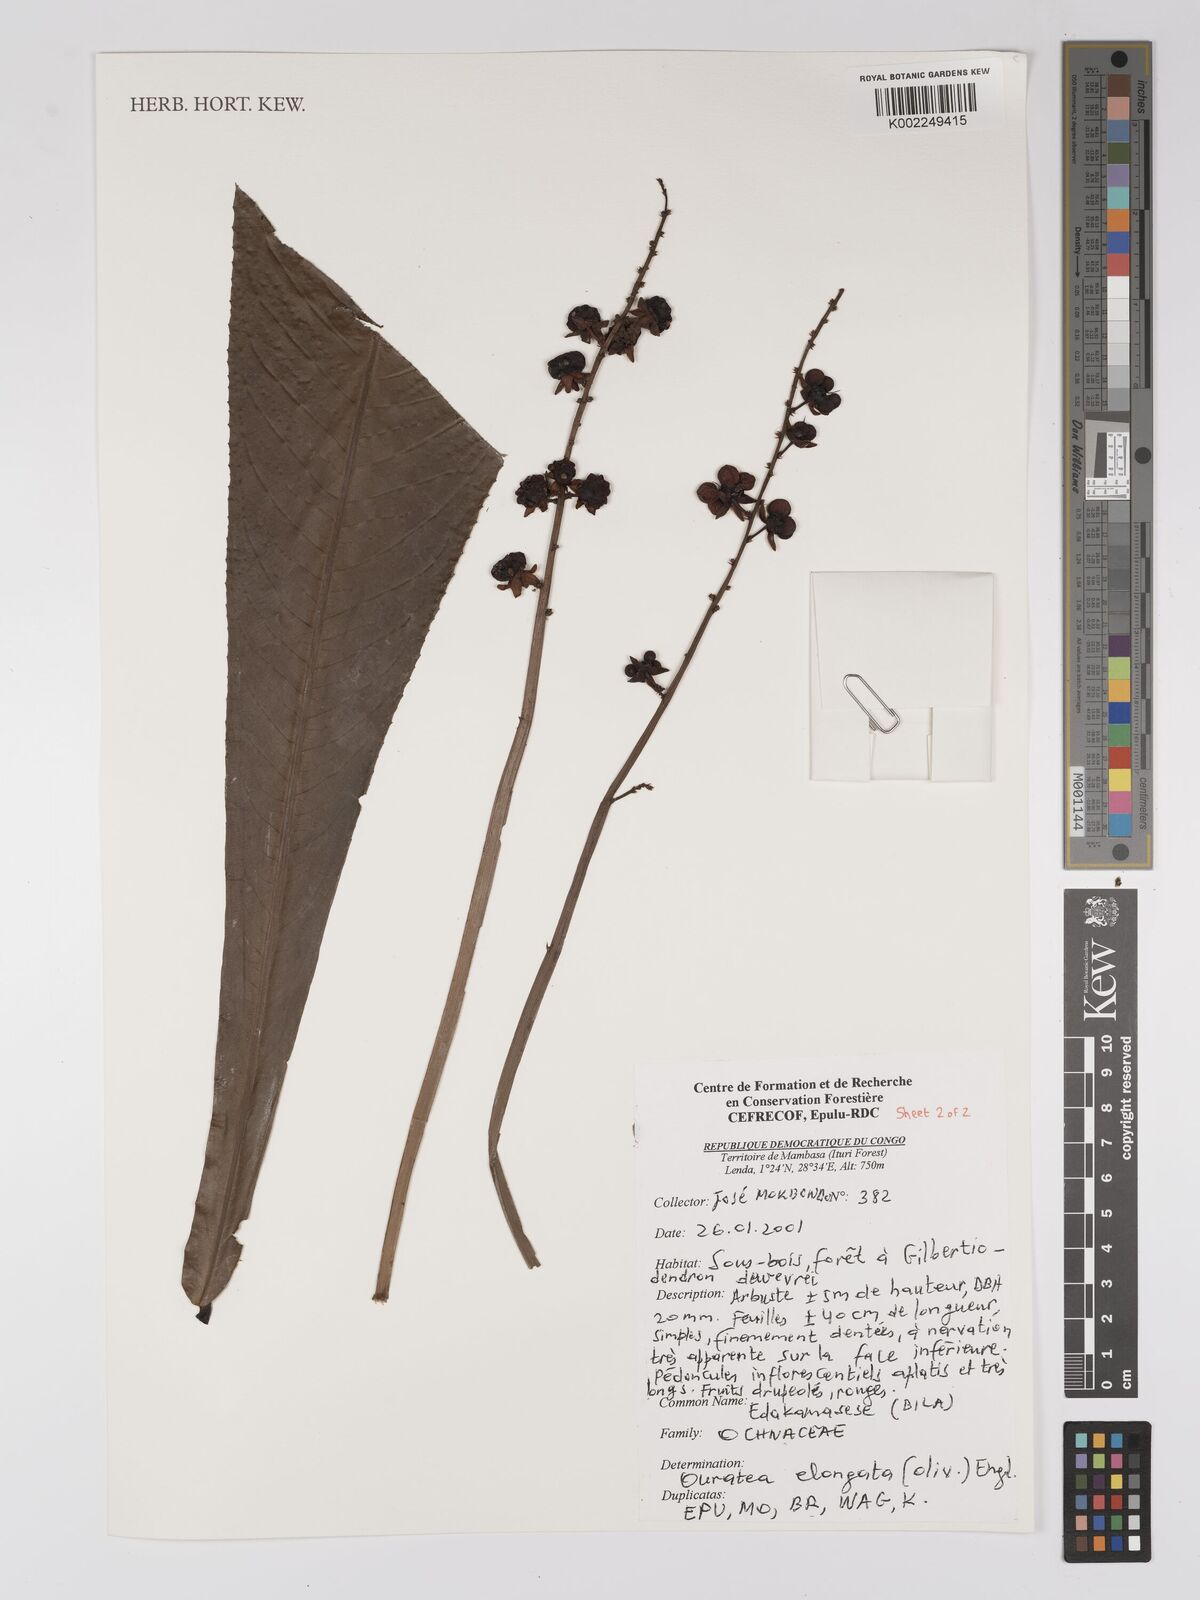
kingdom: Plantae
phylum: Tracheophyta
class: Magnoliopsida
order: Malpighiales
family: Ochnaceae
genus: Gomphia
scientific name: Gomphia elongata
